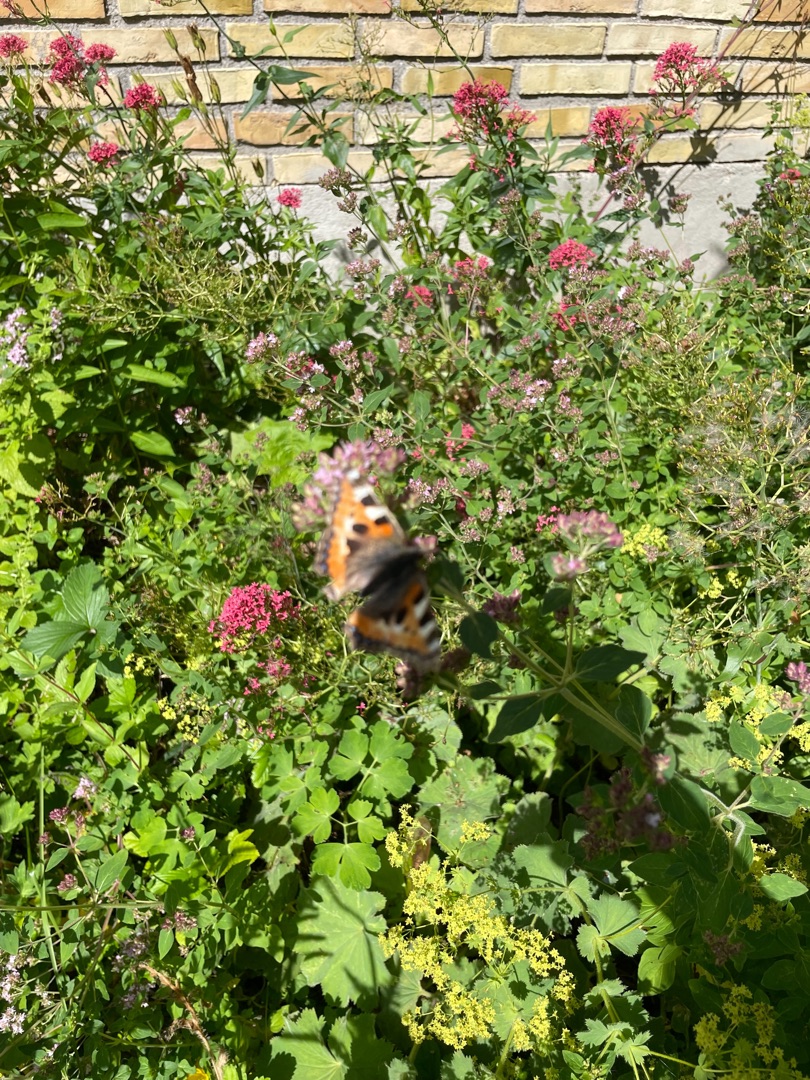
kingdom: Animalia
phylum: Arthropoda
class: Insecta
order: Lepidoptera
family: Nymphalidae
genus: Aglais
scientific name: Aglais urticae
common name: Nældens takvinge
